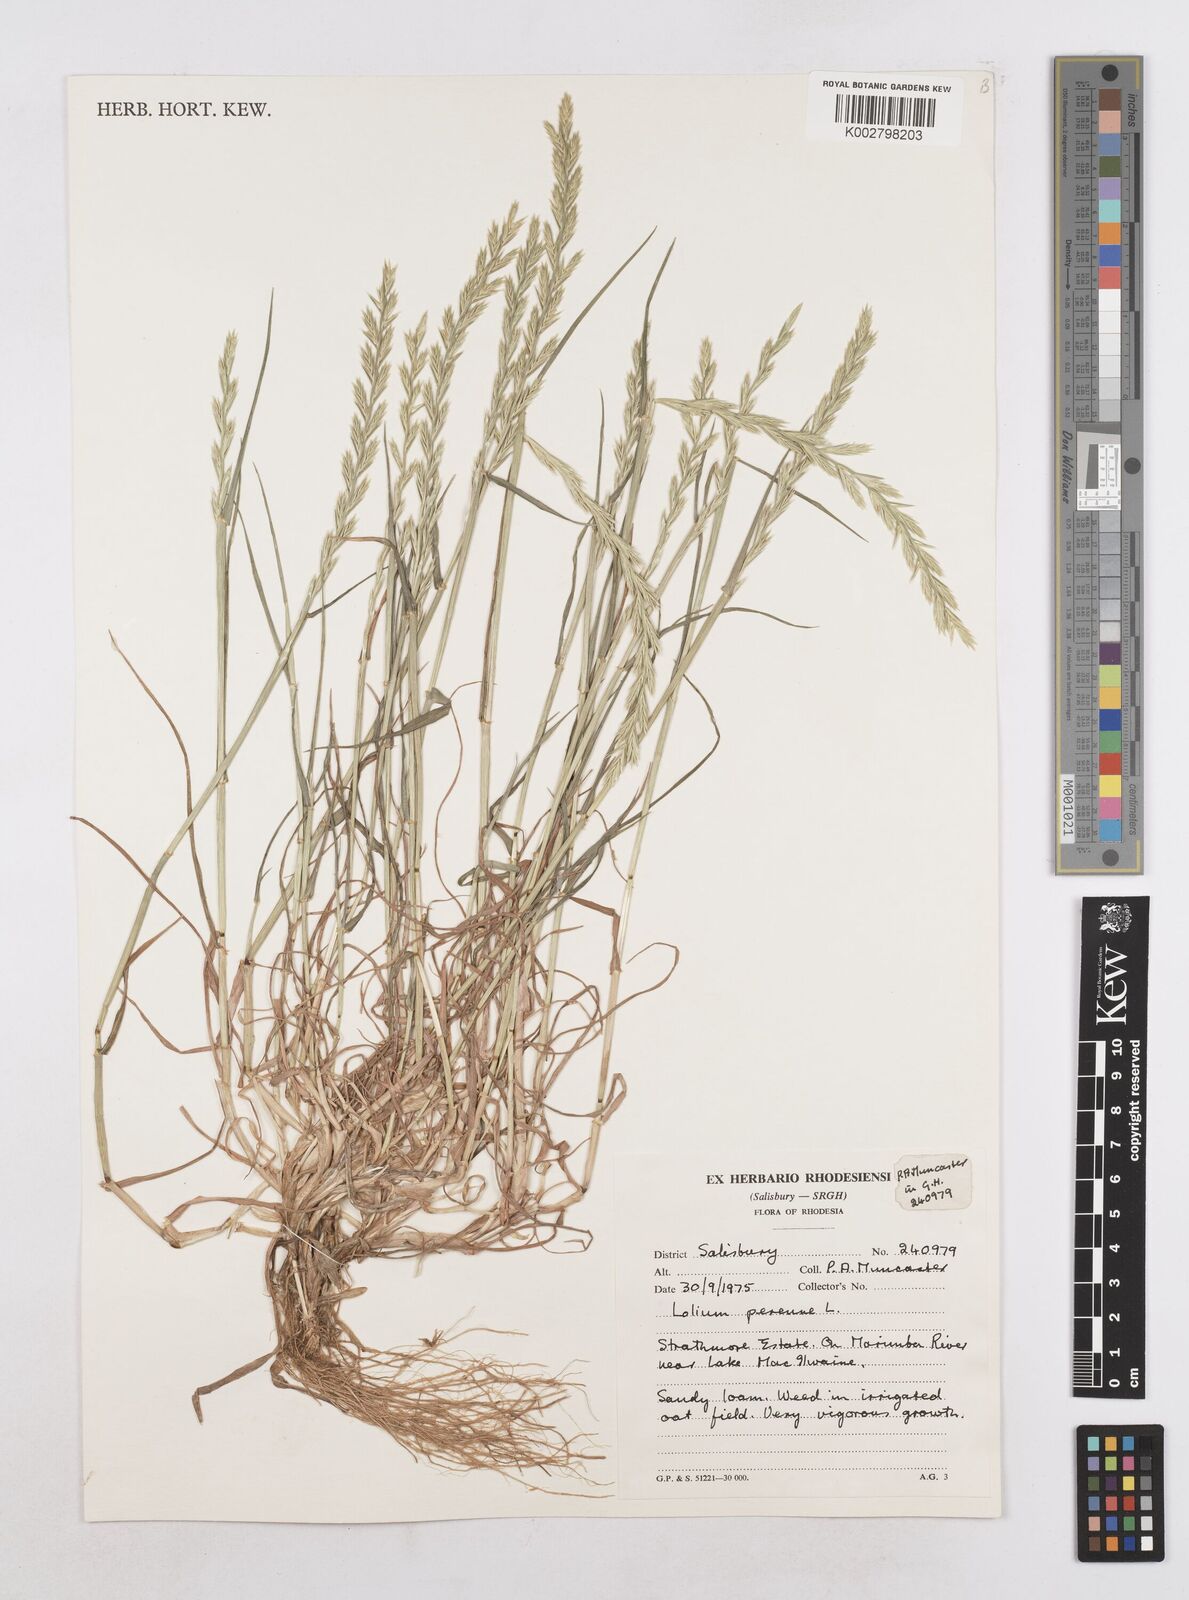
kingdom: Plantae
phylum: Tracheophyta
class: Liliopsida
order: Poales
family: Poaceae
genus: Lolium
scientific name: Lolium perenne
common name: Perennial ryegrass
